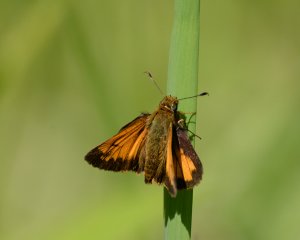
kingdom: Animalia
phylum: Arthropoda
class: Insecta
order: Lepidoptera
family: Hesperiidae
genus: Lon
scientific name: Lon hobomok
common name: Hobomok Skipper
